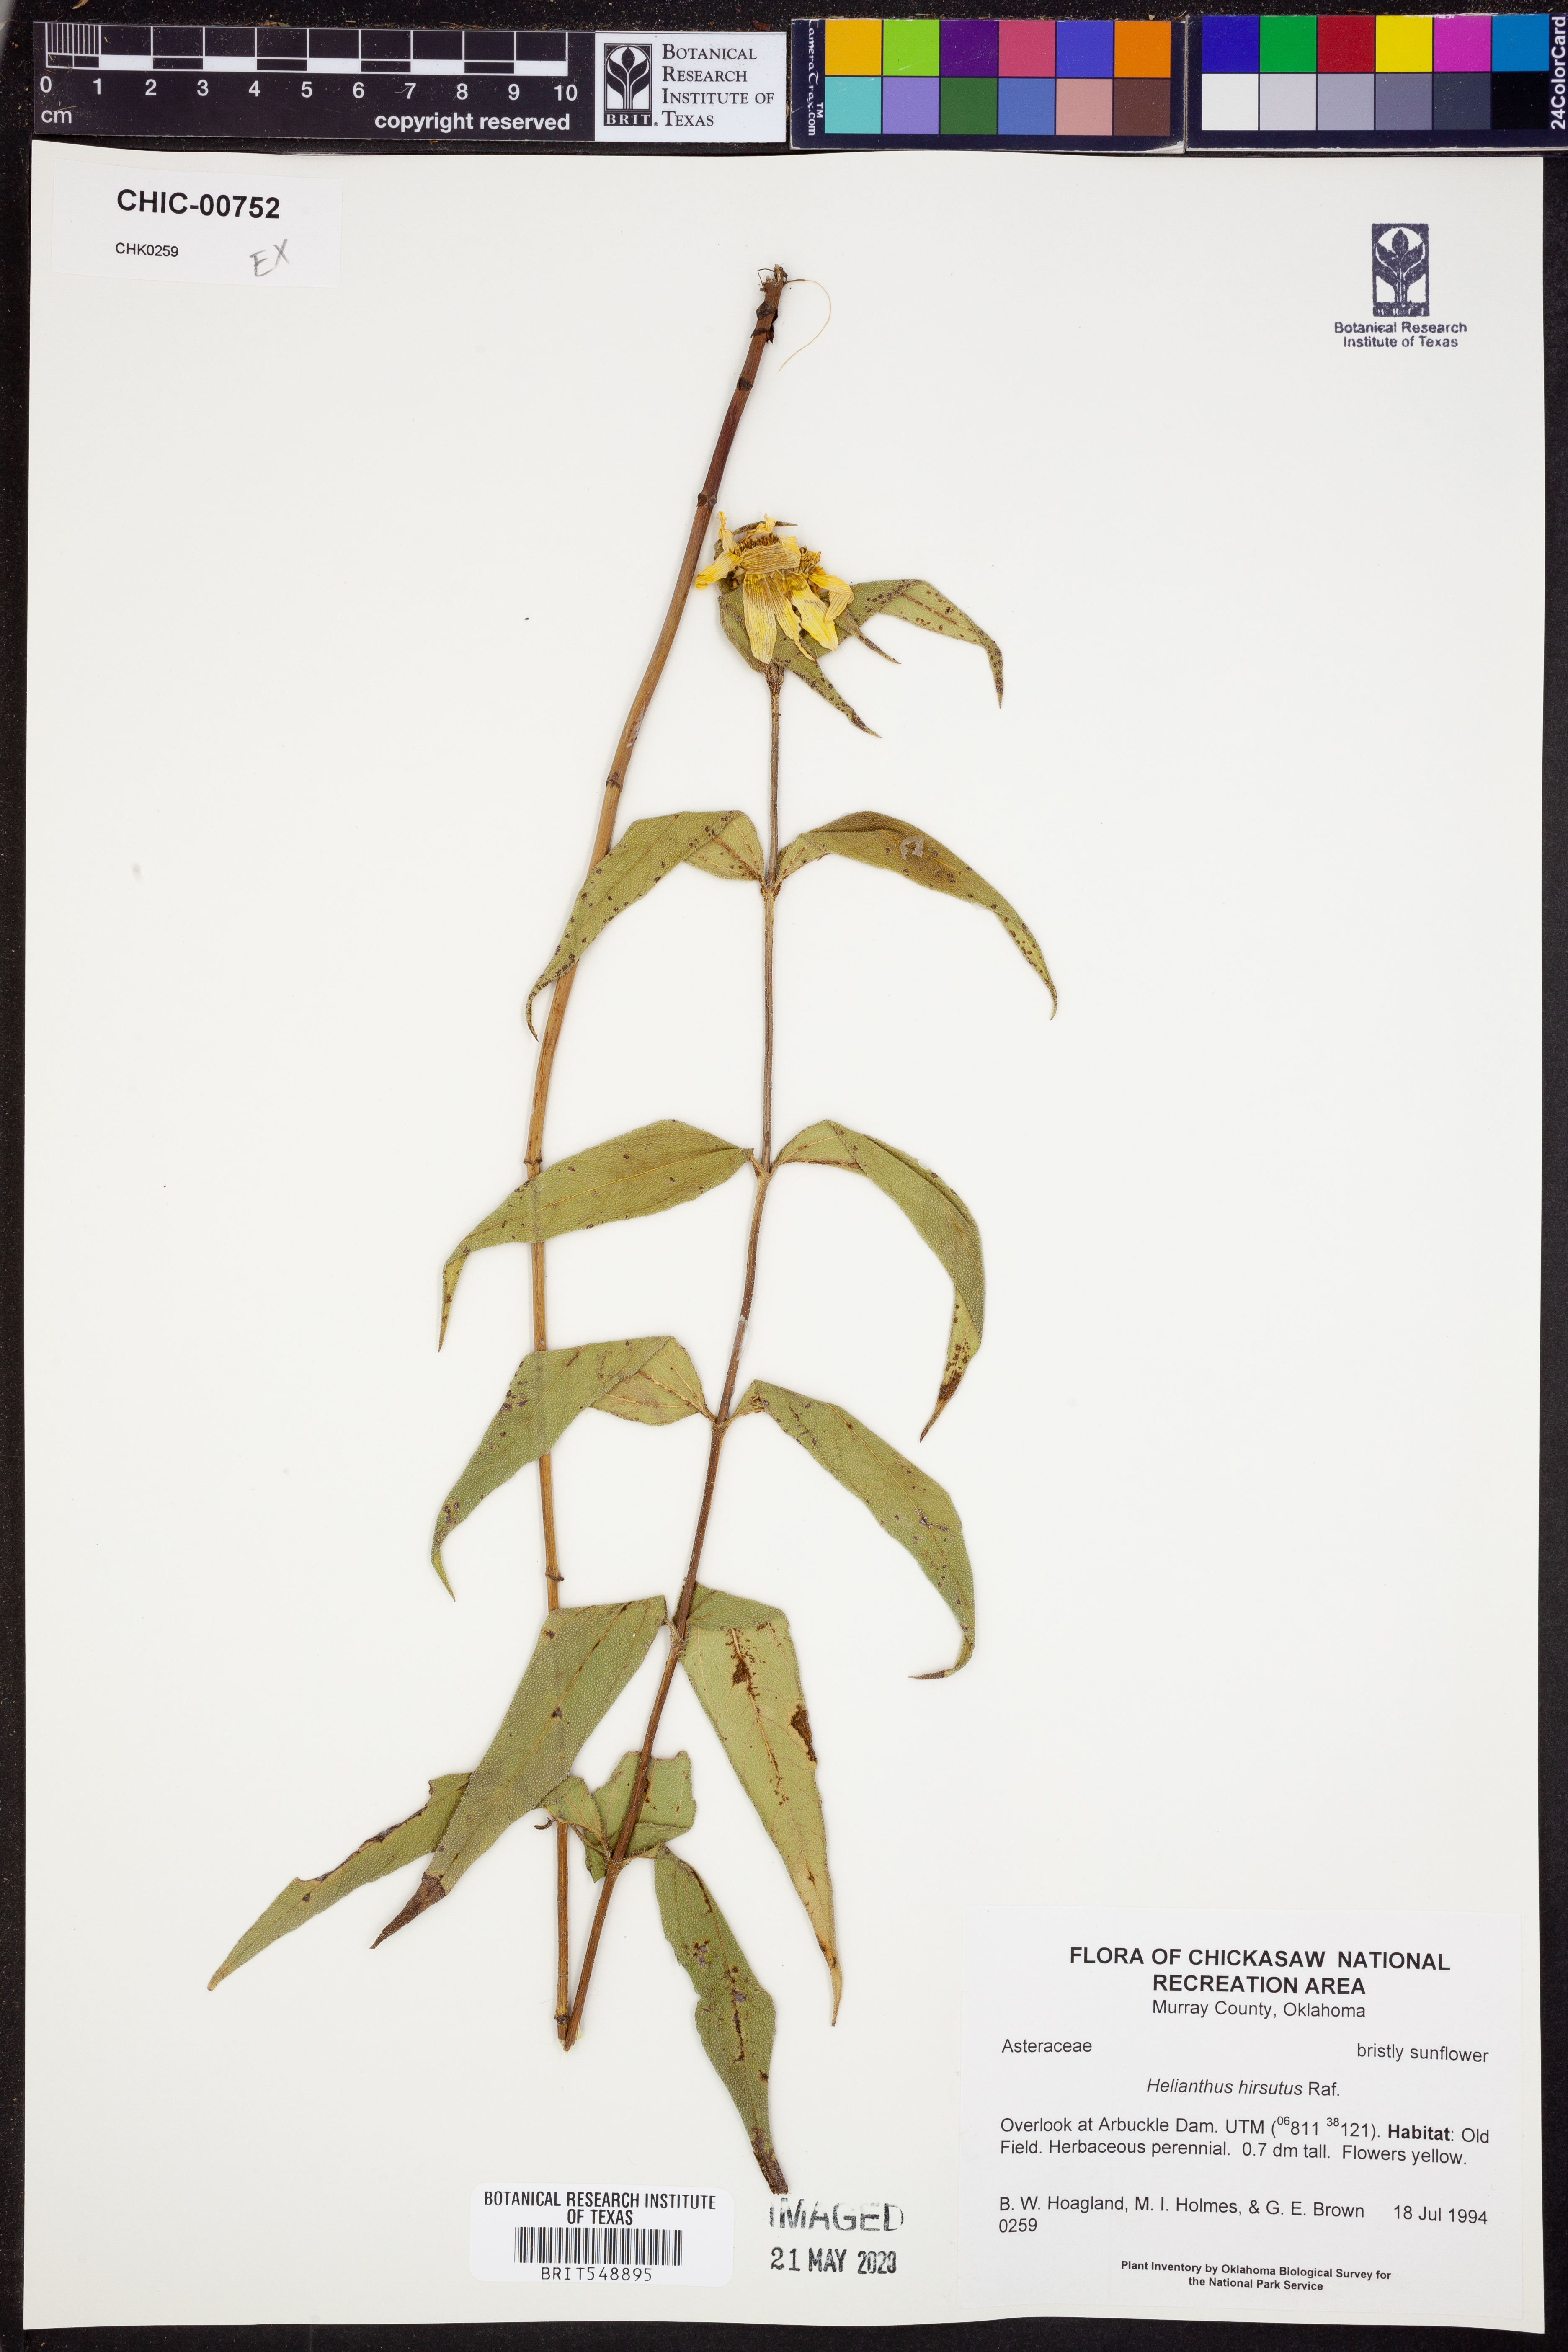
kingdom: Plantae
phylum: Tracheophyta
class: Magnoliopsida
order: Asterales
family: Asteraceae
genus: Helianthus
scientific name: Helianthus hirsutus
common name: Hairy sunflower
